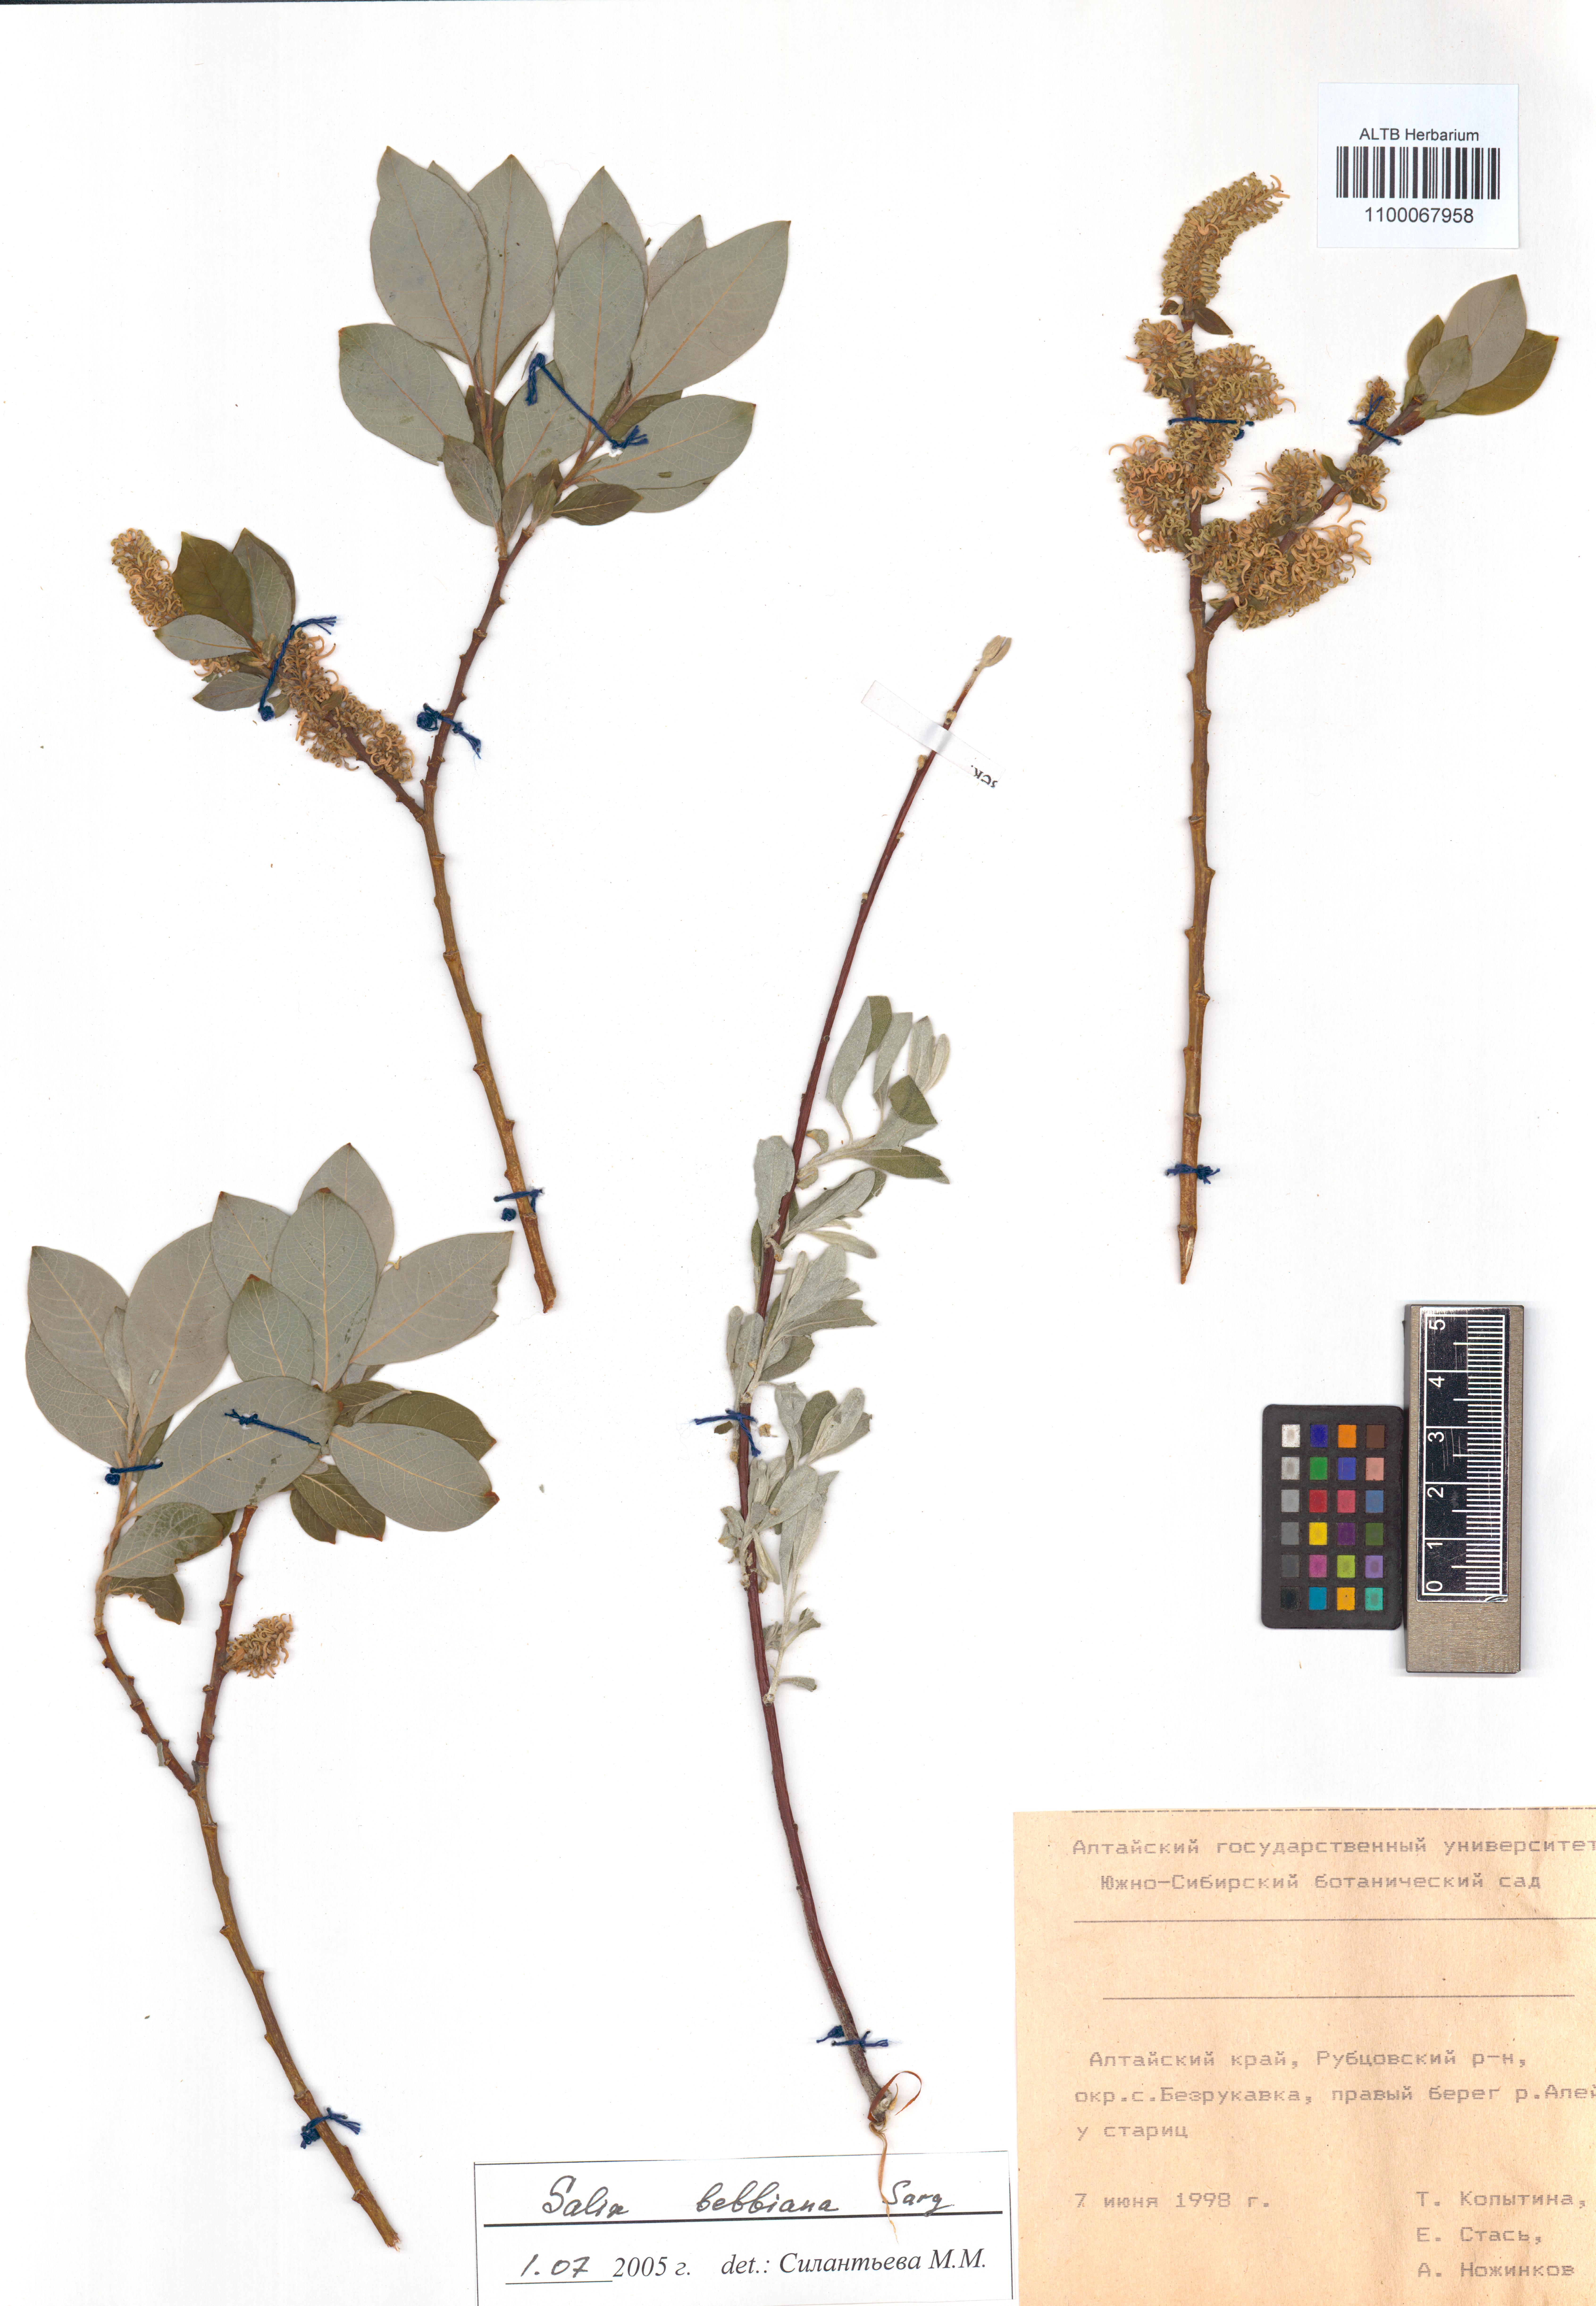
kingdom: Plantae
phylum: Tracheophyta
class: Magnoliopsida
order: Malpighiales
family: Salicaceae
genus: Salix
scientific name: Salix bebbiana
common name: Bebb's willow
